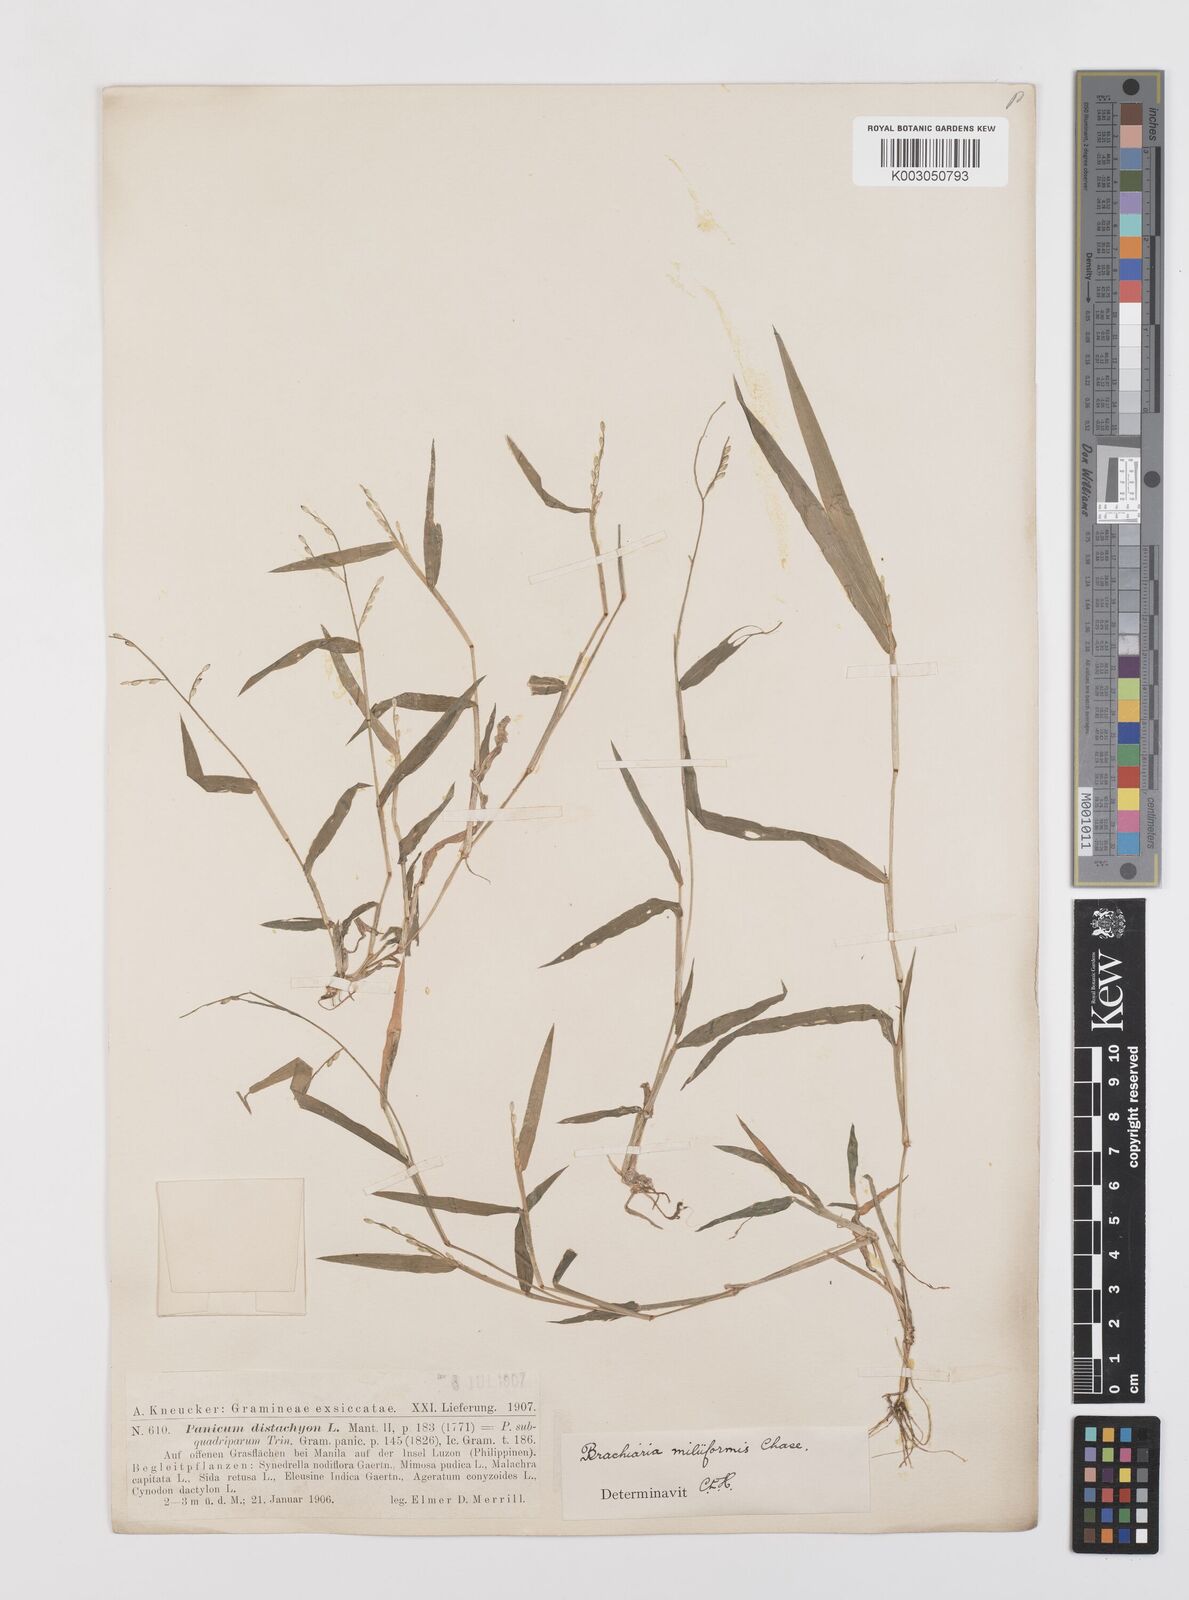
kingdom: Plantae
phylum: Tracheophyta
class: Liliopsida
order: Poales
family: Poaceae
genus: Urochloa
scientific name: Urochloa subquadripara
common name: Armgrass millet
